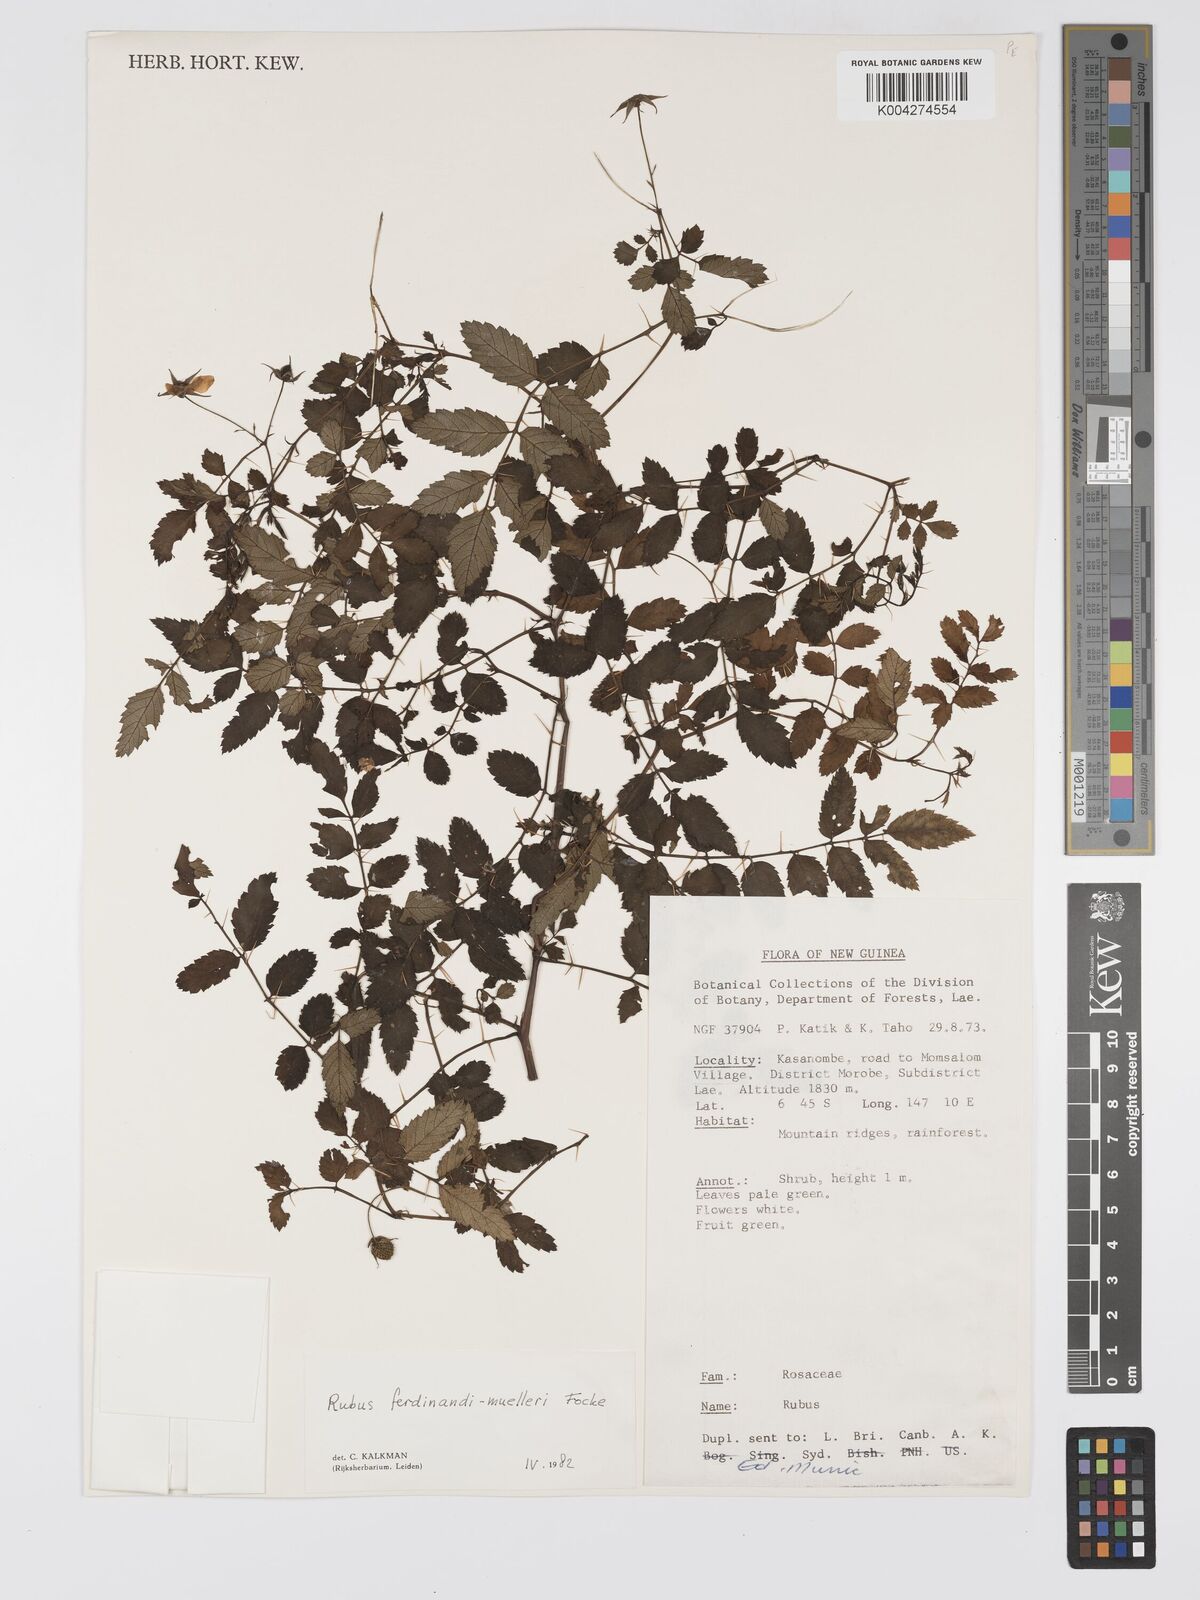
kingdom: Plantae
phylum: Tracheophyta
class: Magnoliopsida
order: Rosales
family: Rosaceae
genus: Rubus
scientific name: Rubus ferdinandimuelleri
